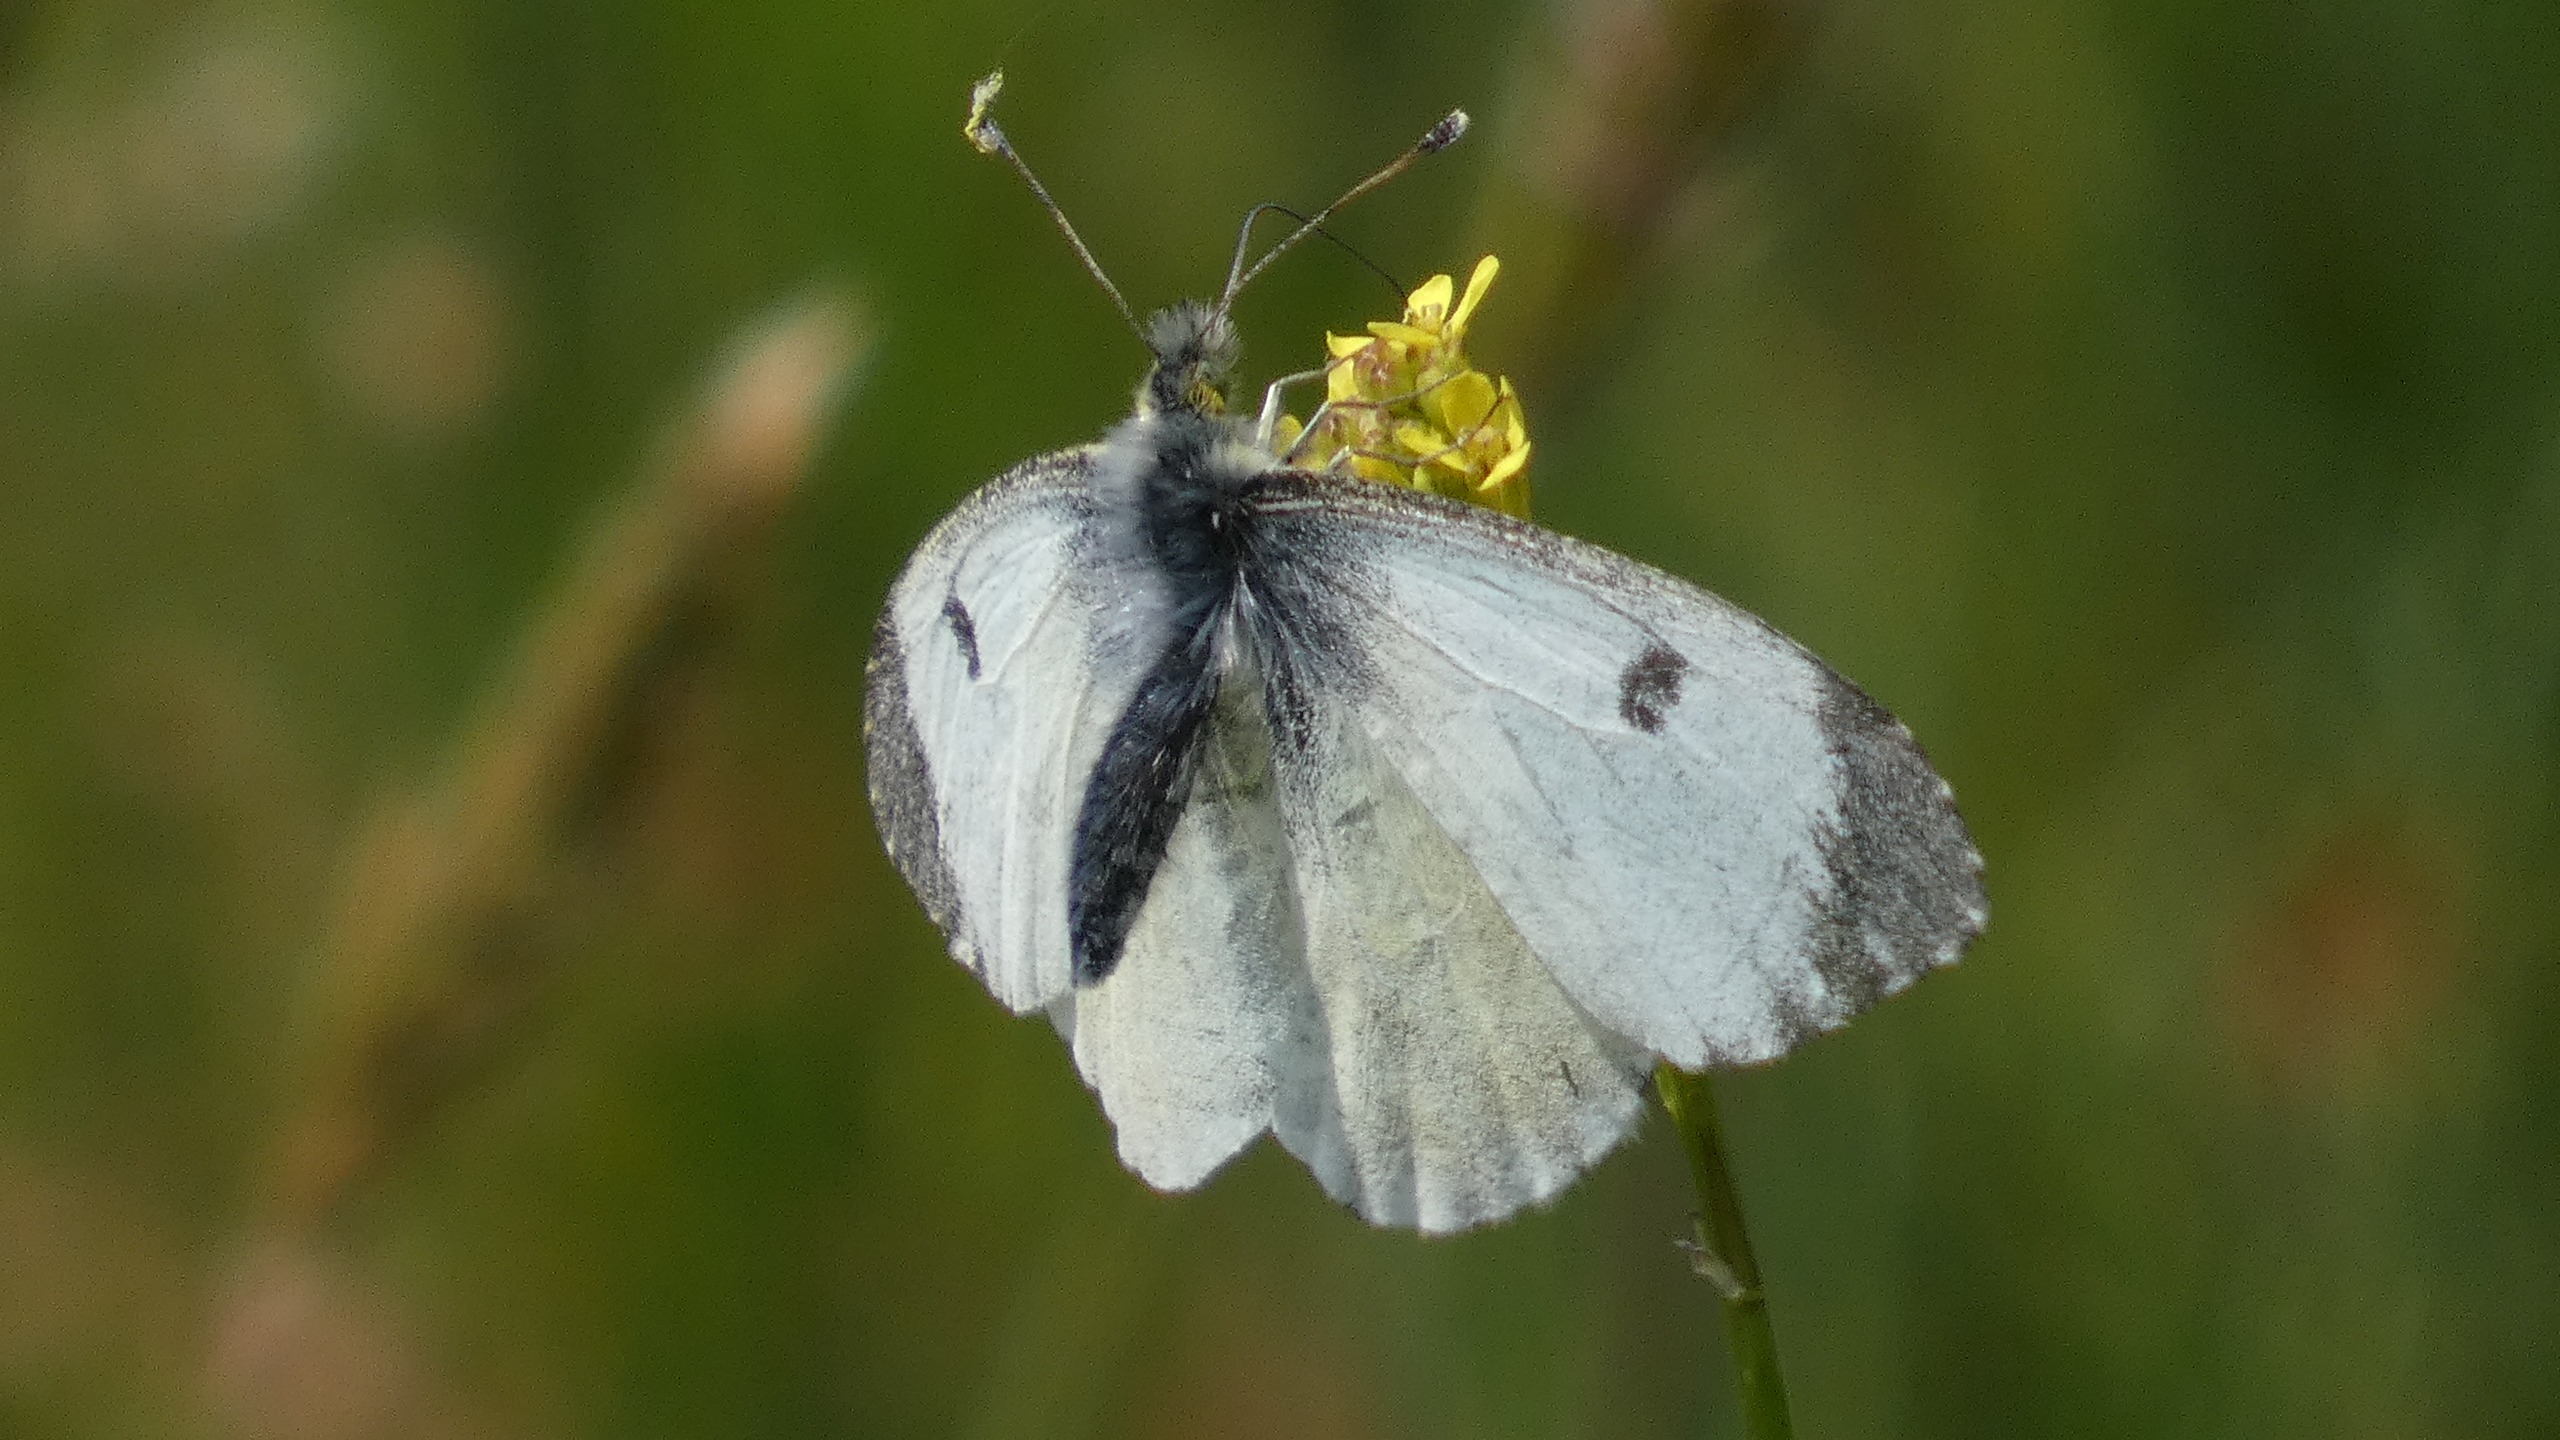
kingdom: Animalia
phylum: Arthropoda
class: Insecta
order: Lepidoptera
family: Pieridae
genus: Anthocharis
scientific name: Anthocharis cardamines
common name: Aurora
